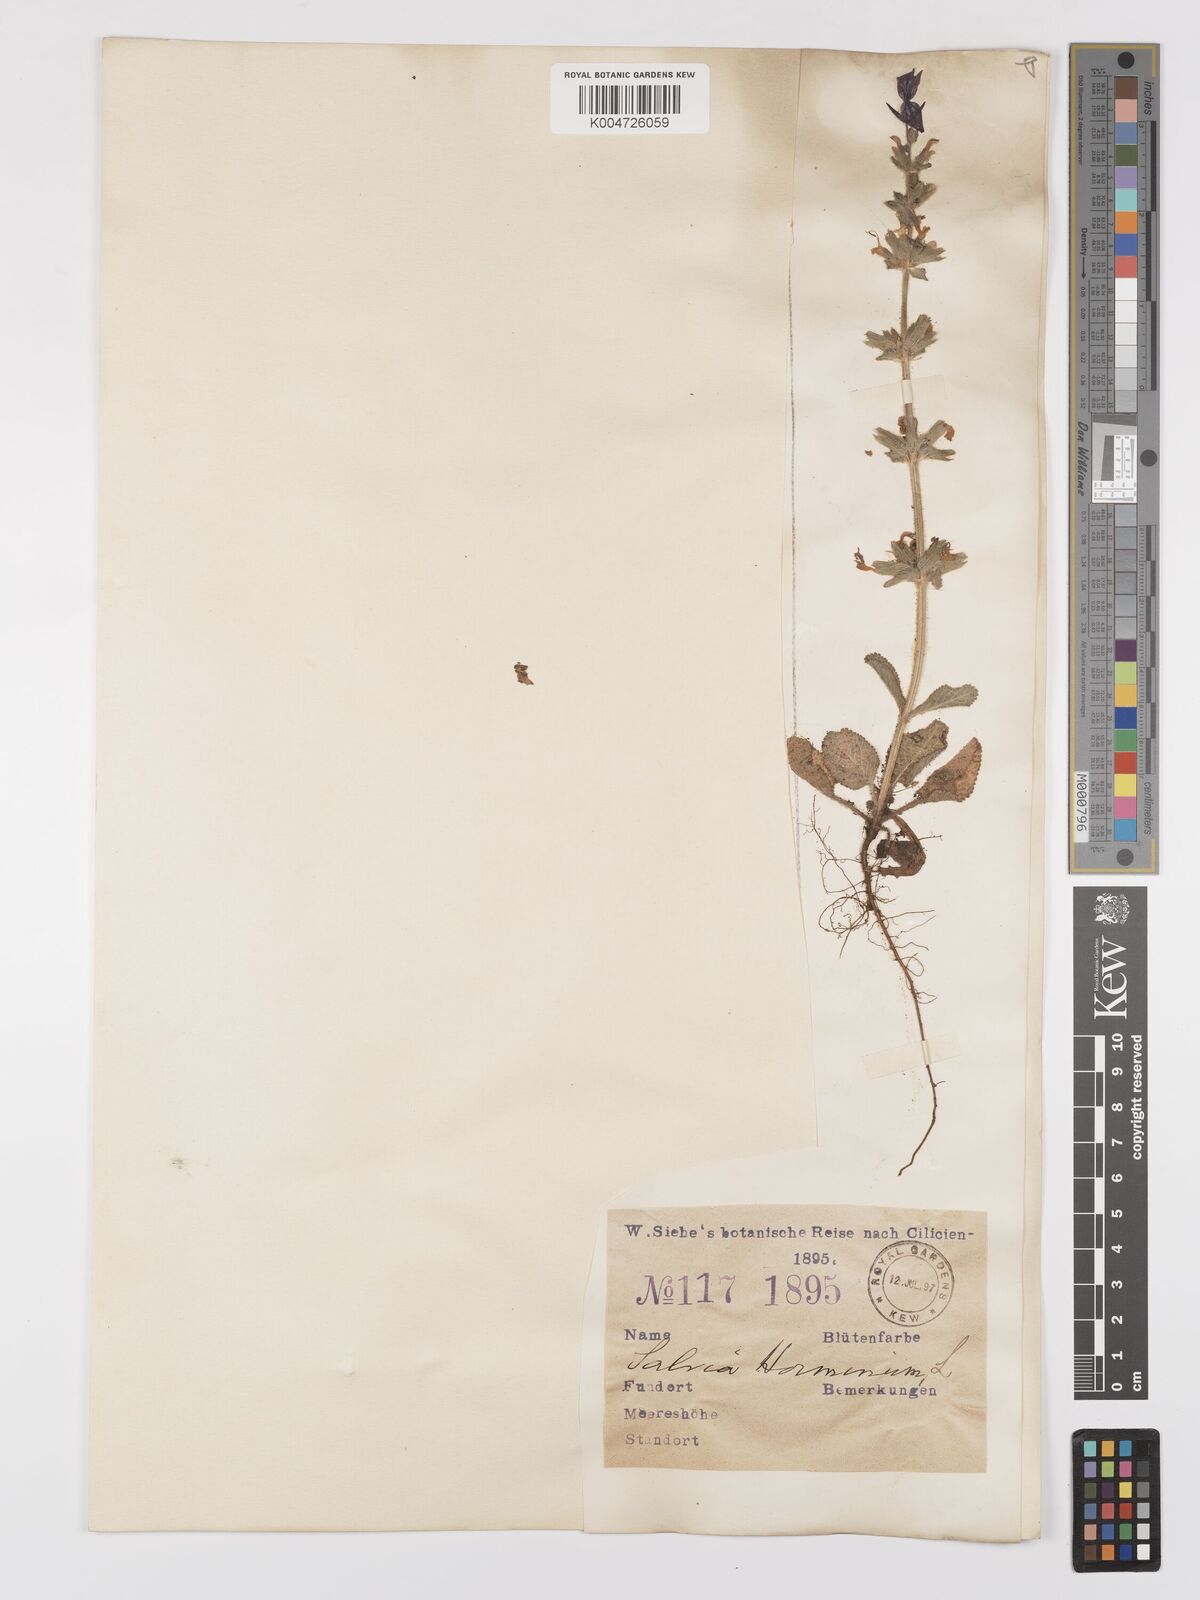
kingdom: Plantae
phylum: Tracheophyta
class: Magnoliopsida
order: Lamiales
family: Lamiaceae
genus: Salvia
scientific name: Salvia viridis
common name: Annual clary
